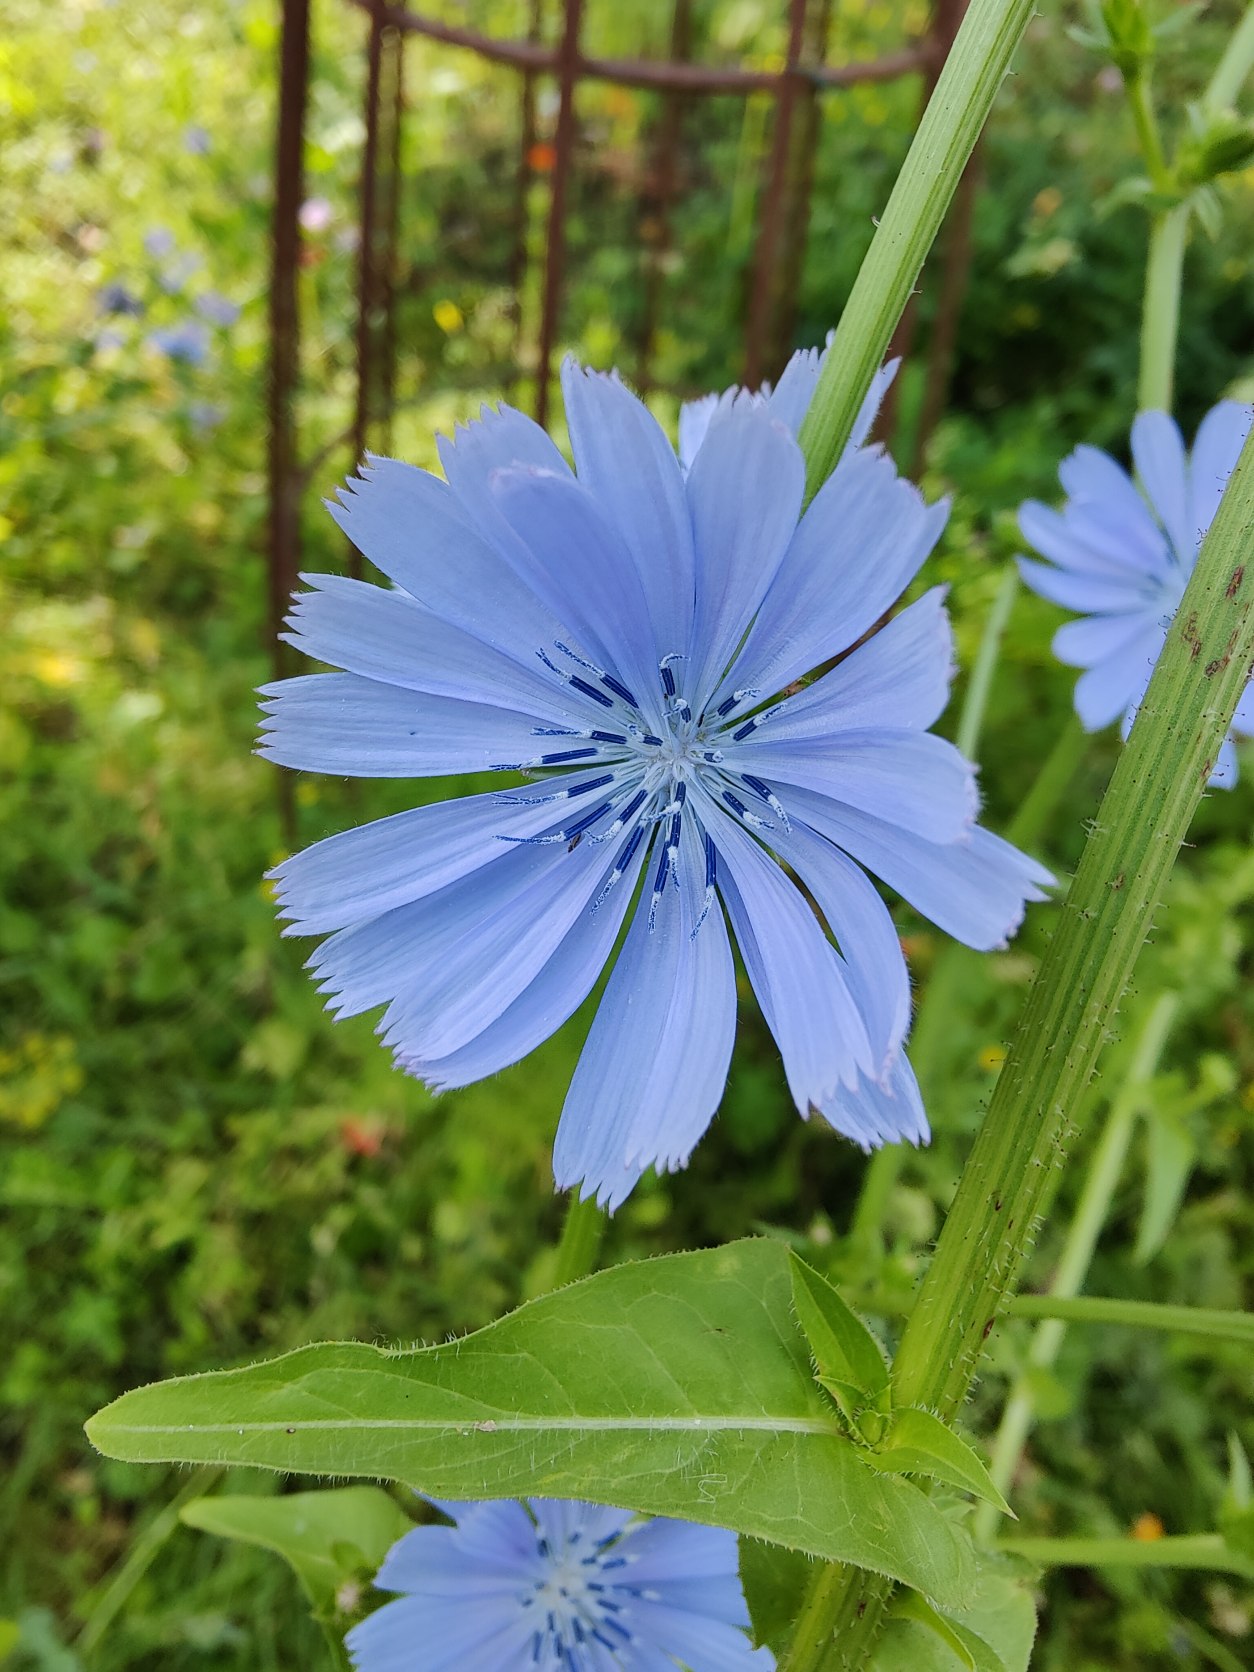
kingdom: Plantae
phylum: Tracheophyta
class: Magnoliopsida
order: Asterales
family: Asteraceae
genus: Cichorium
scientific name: Cichorium intybus
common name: Cikorie
